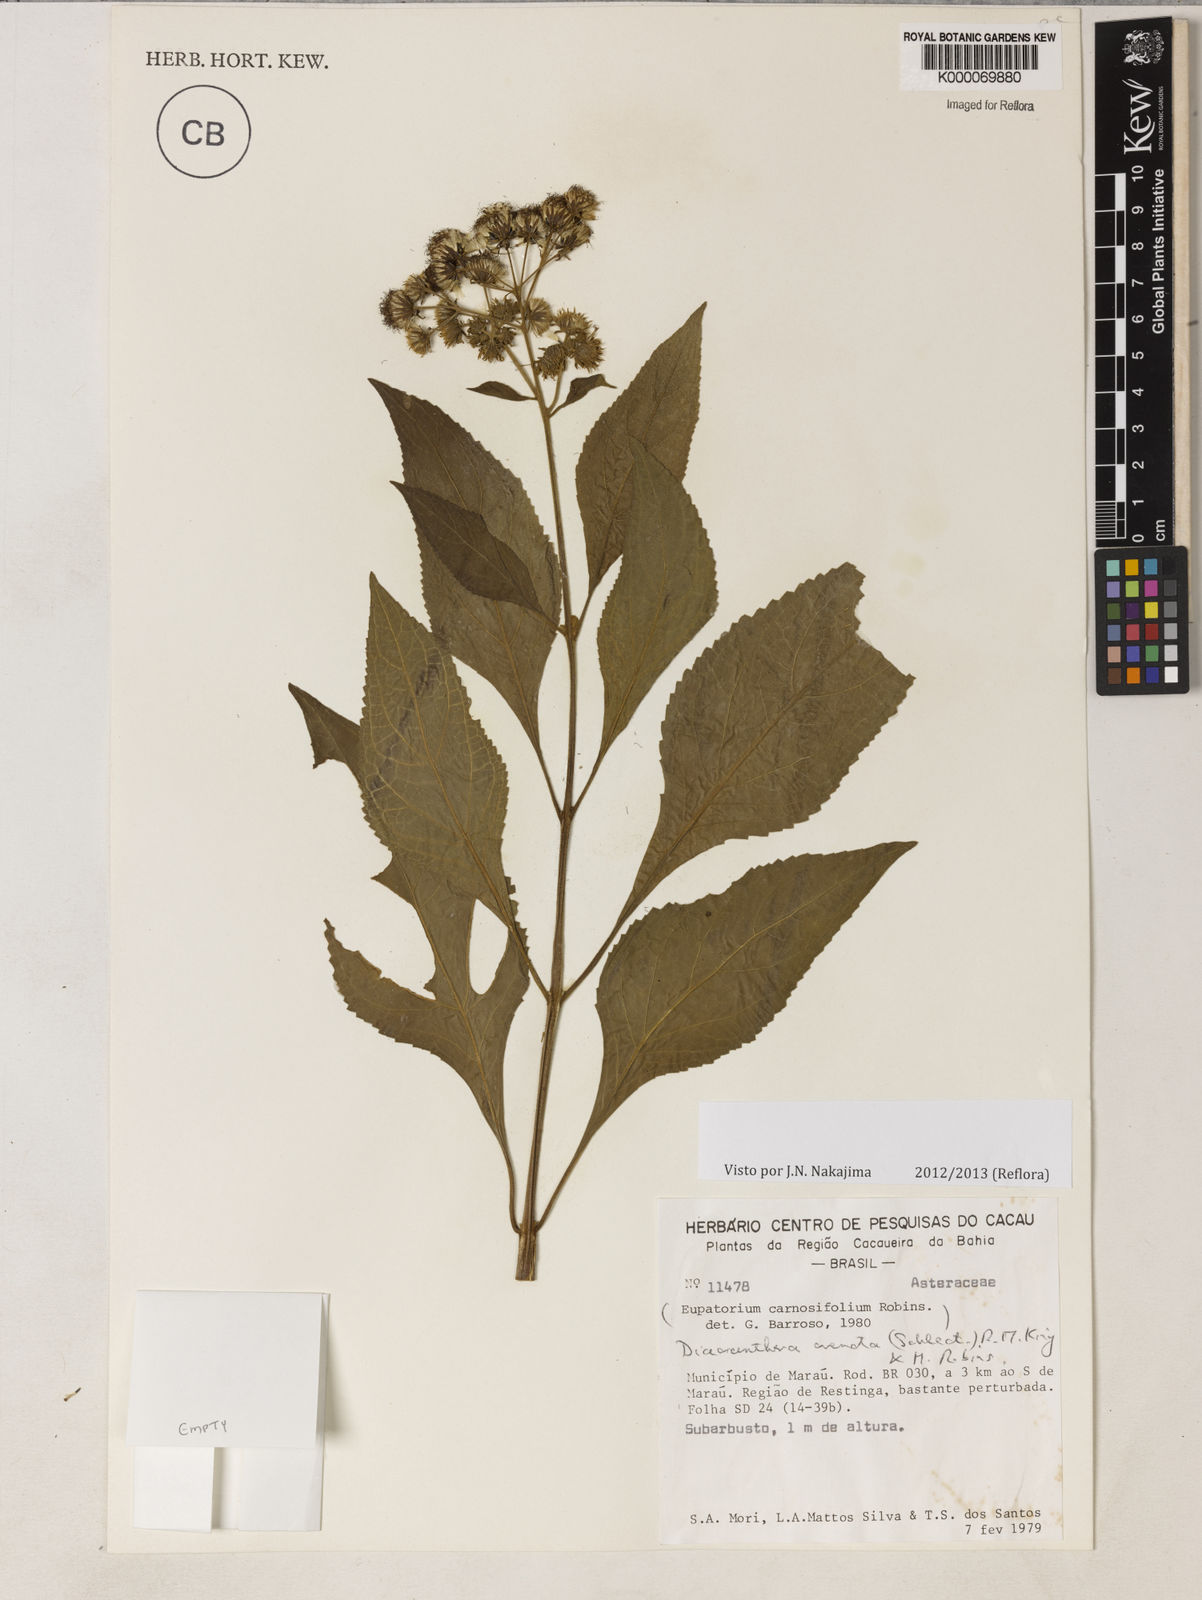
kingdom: Plantae
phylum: Tracheophyta
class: Magnoliopsida
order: Asterales
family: Asteraceae
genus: Diacranthera
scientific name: Diacranthera crenata
